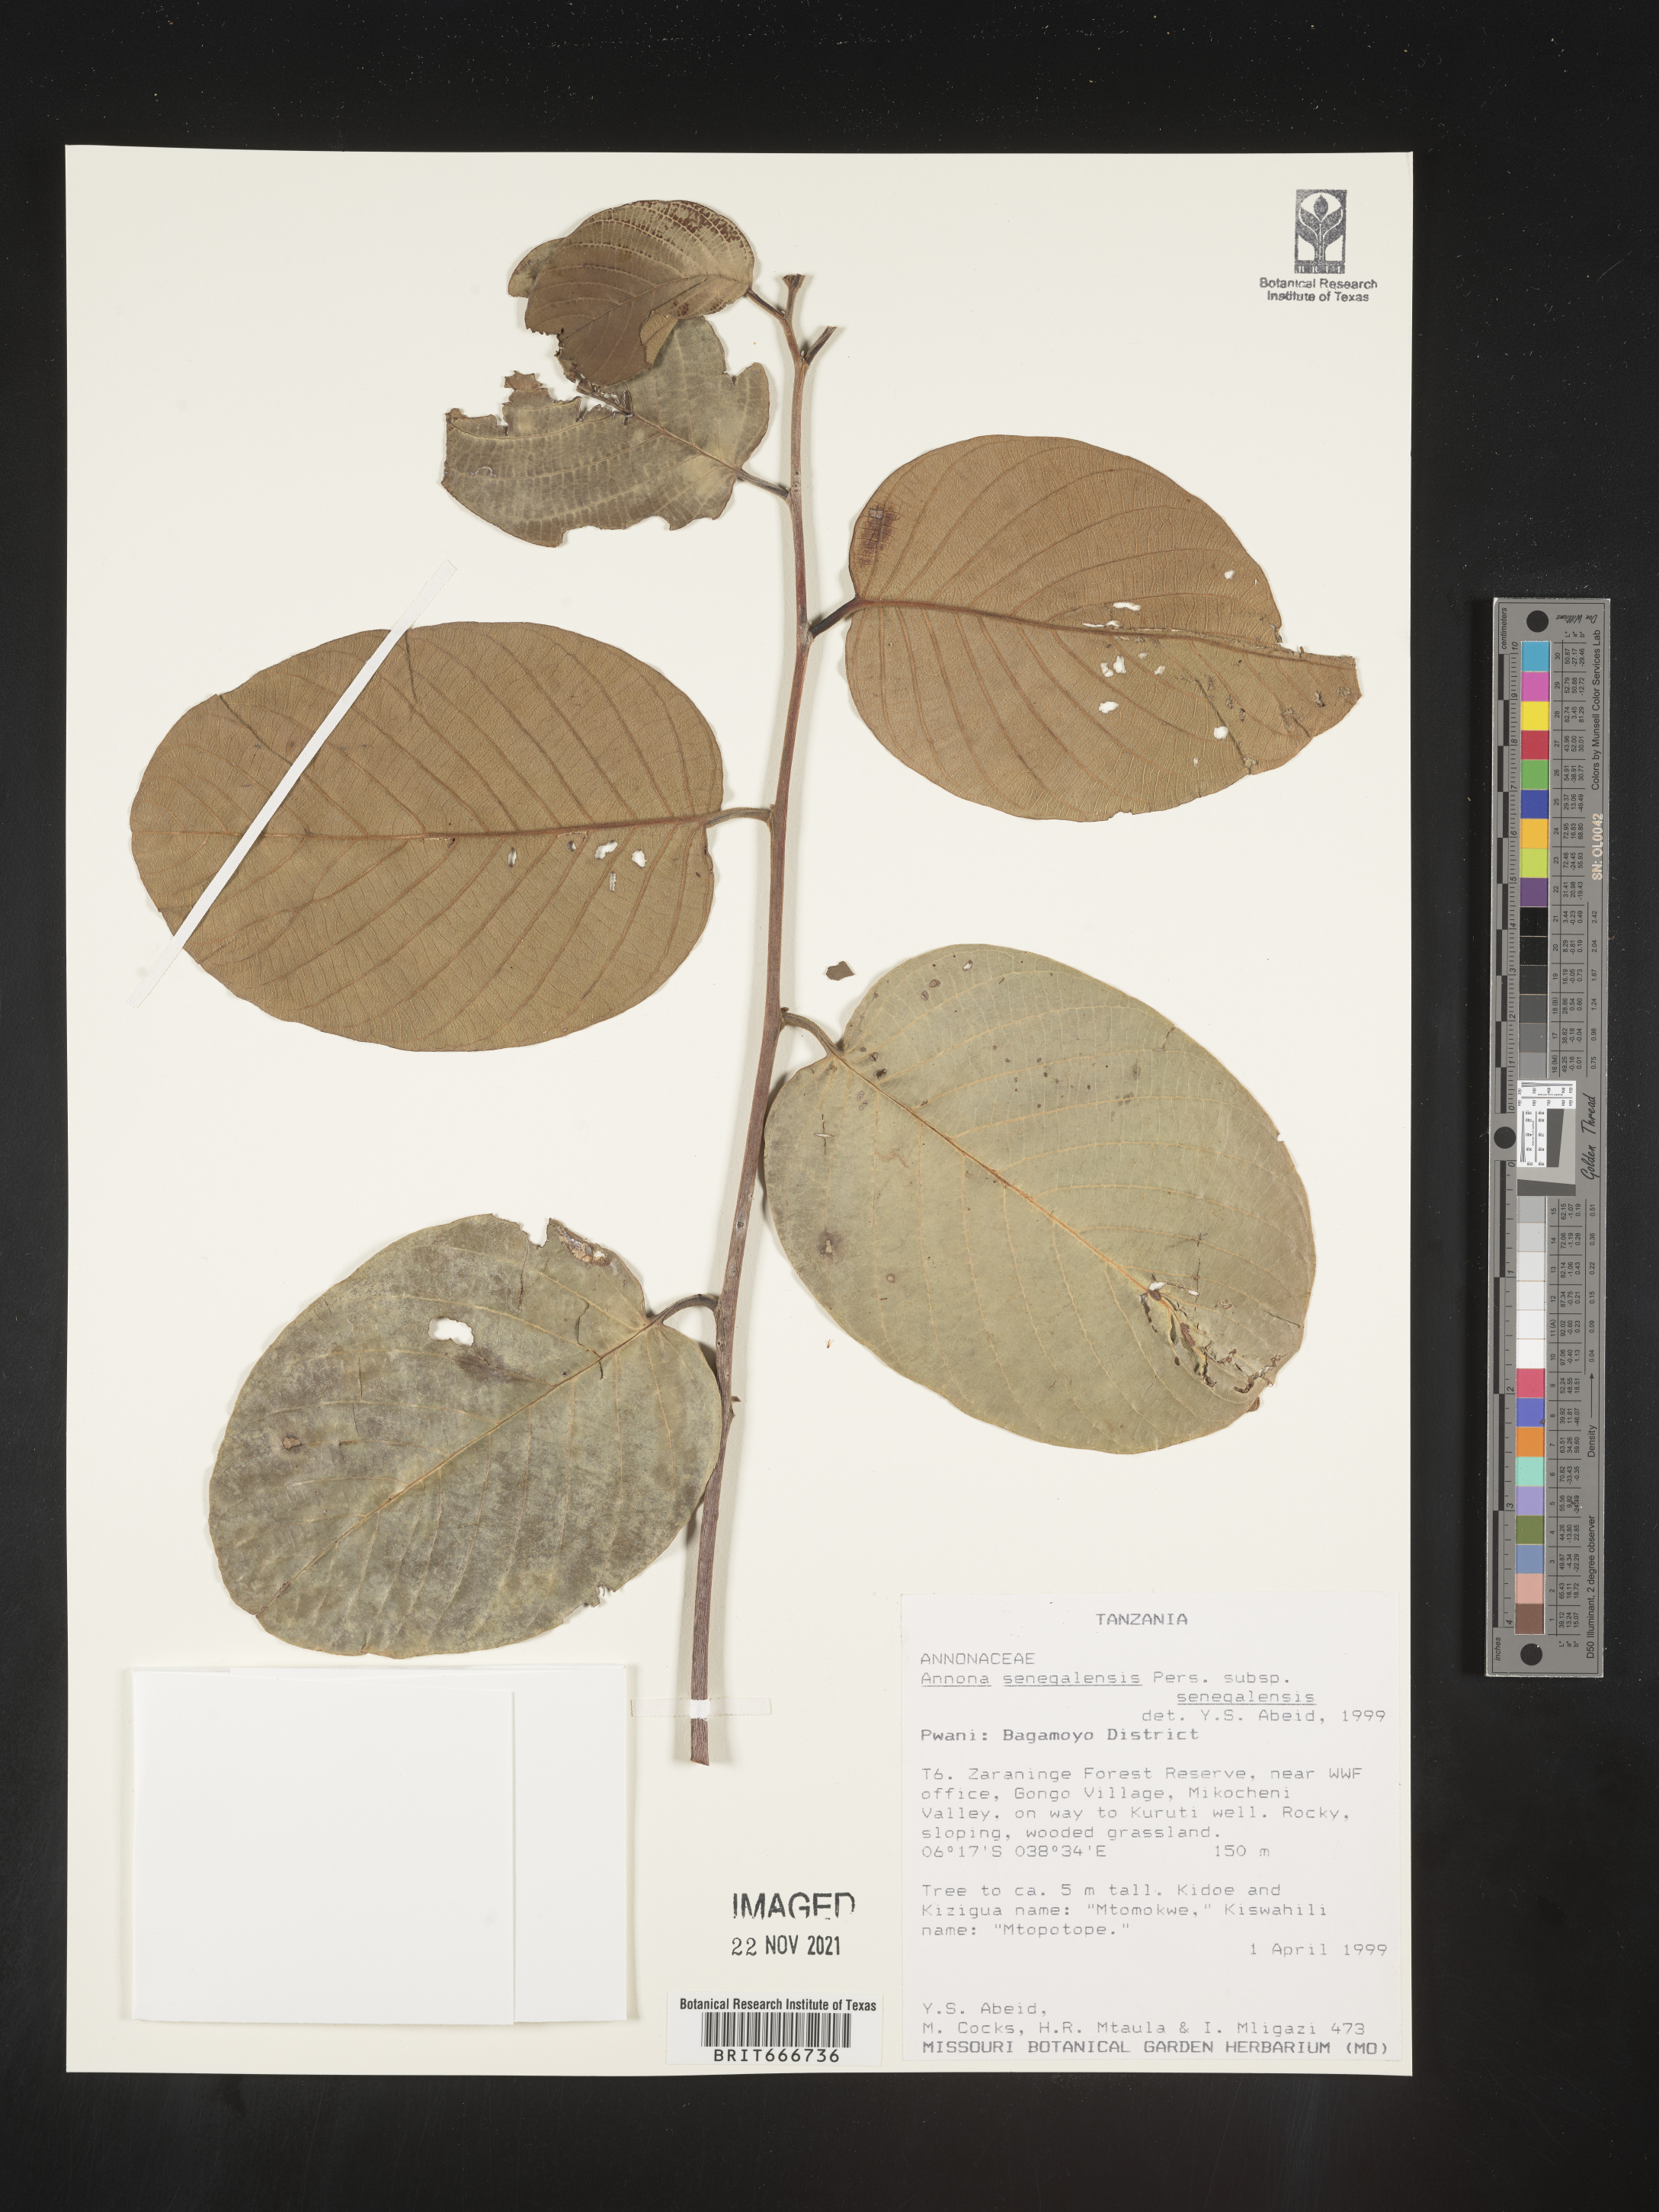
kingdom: Plantae
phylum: Tracheophyta
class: Magnoliopsida
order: Magnoliales
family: Annonaceae
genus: Annona
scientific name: Annona
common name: Anona
